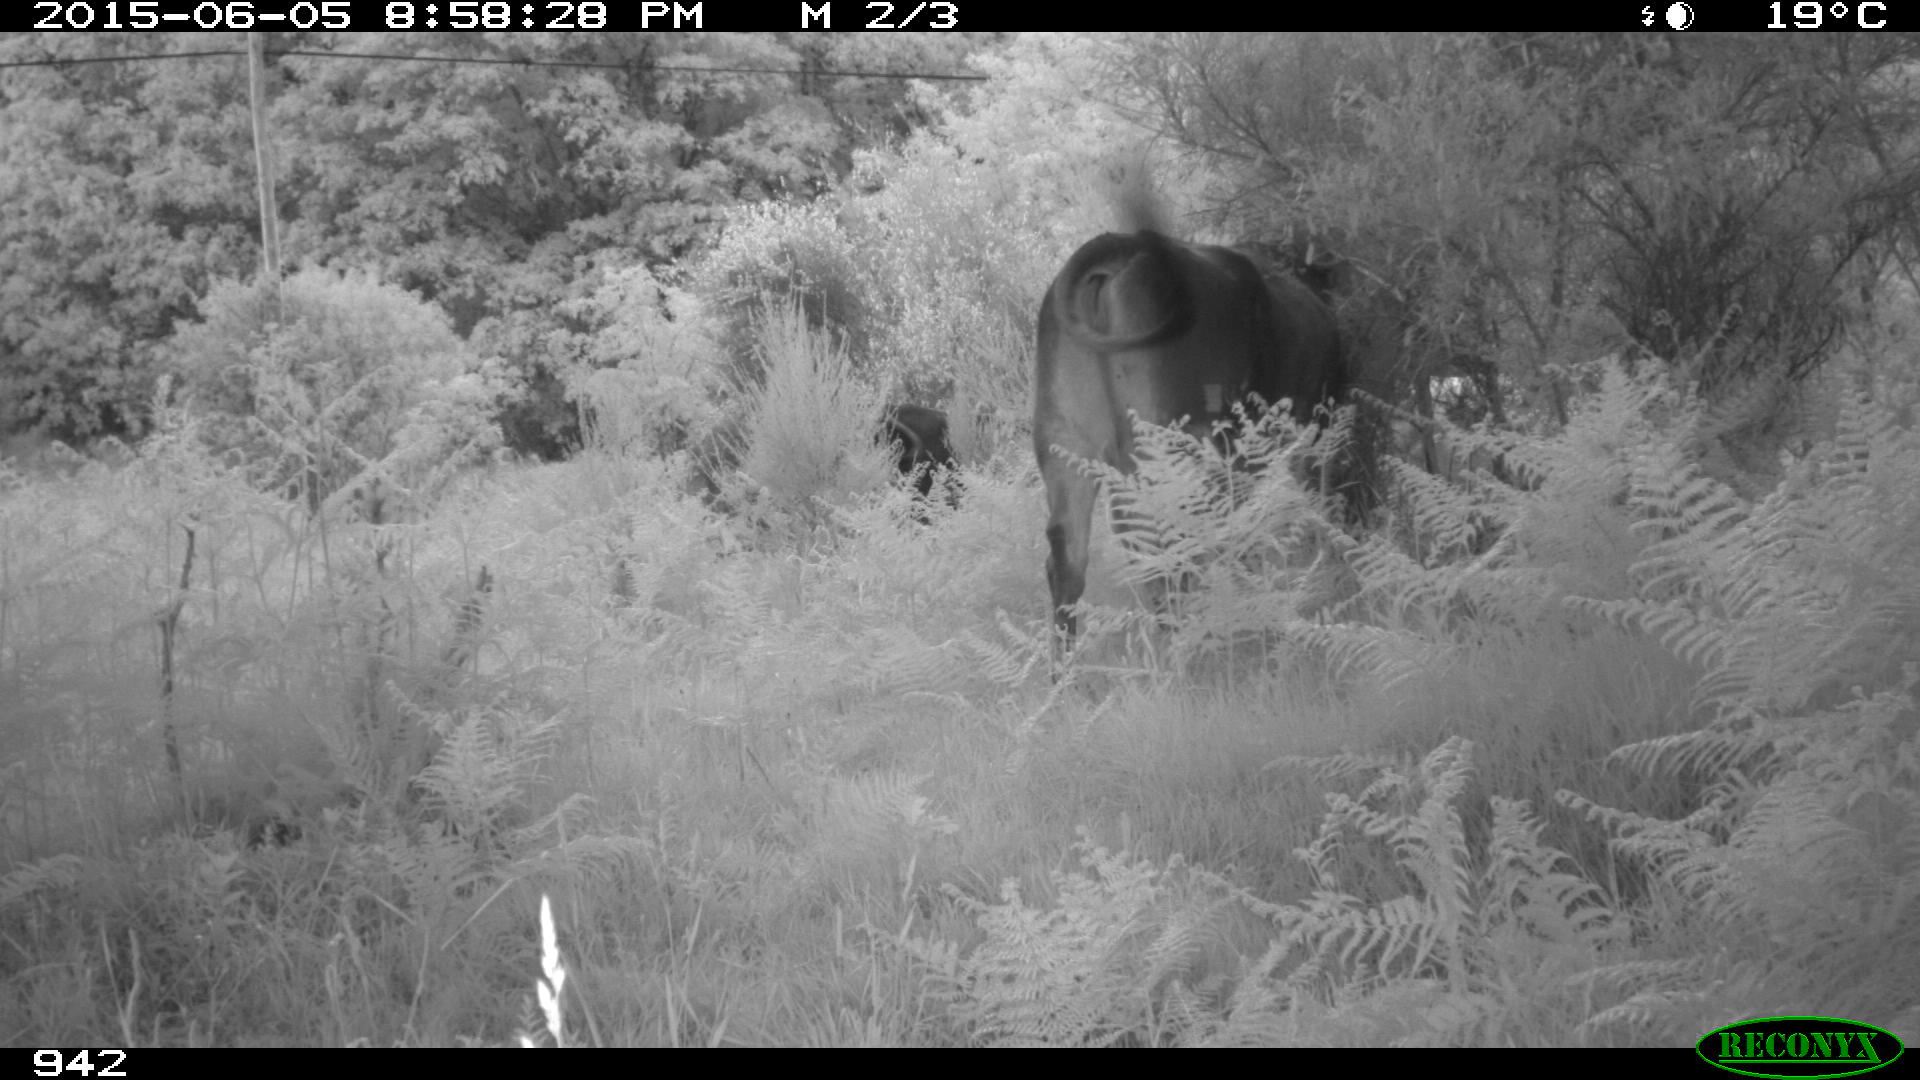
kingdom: Animalia
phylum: Chordata
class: Mammalia
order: Artiodactyla
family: Bovidae
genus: Bos
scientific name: Bos taurus
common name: Domesticated cattle
